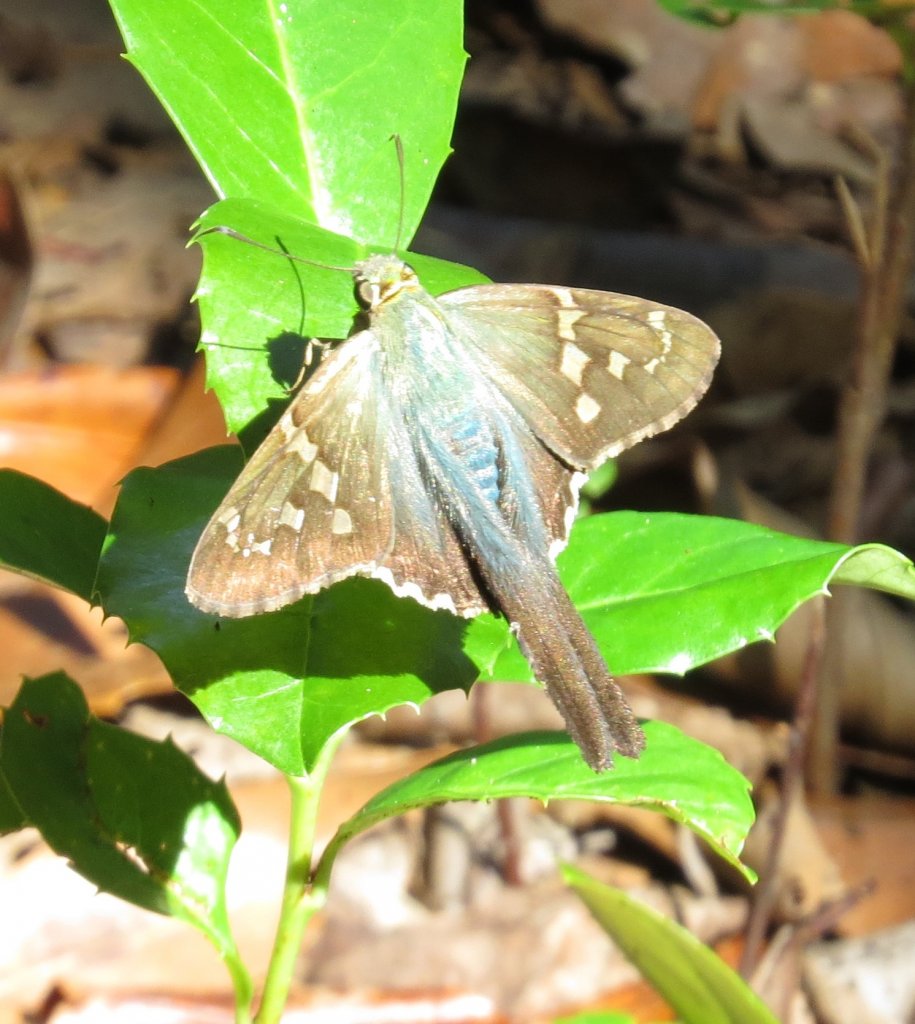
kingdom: Animalia
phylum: Arthropoda
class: Insecta
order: Lepidoptera
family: Hesperiidae
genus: Urbanus
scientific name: Urbanus proteus
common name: Long-tailed Skipper
